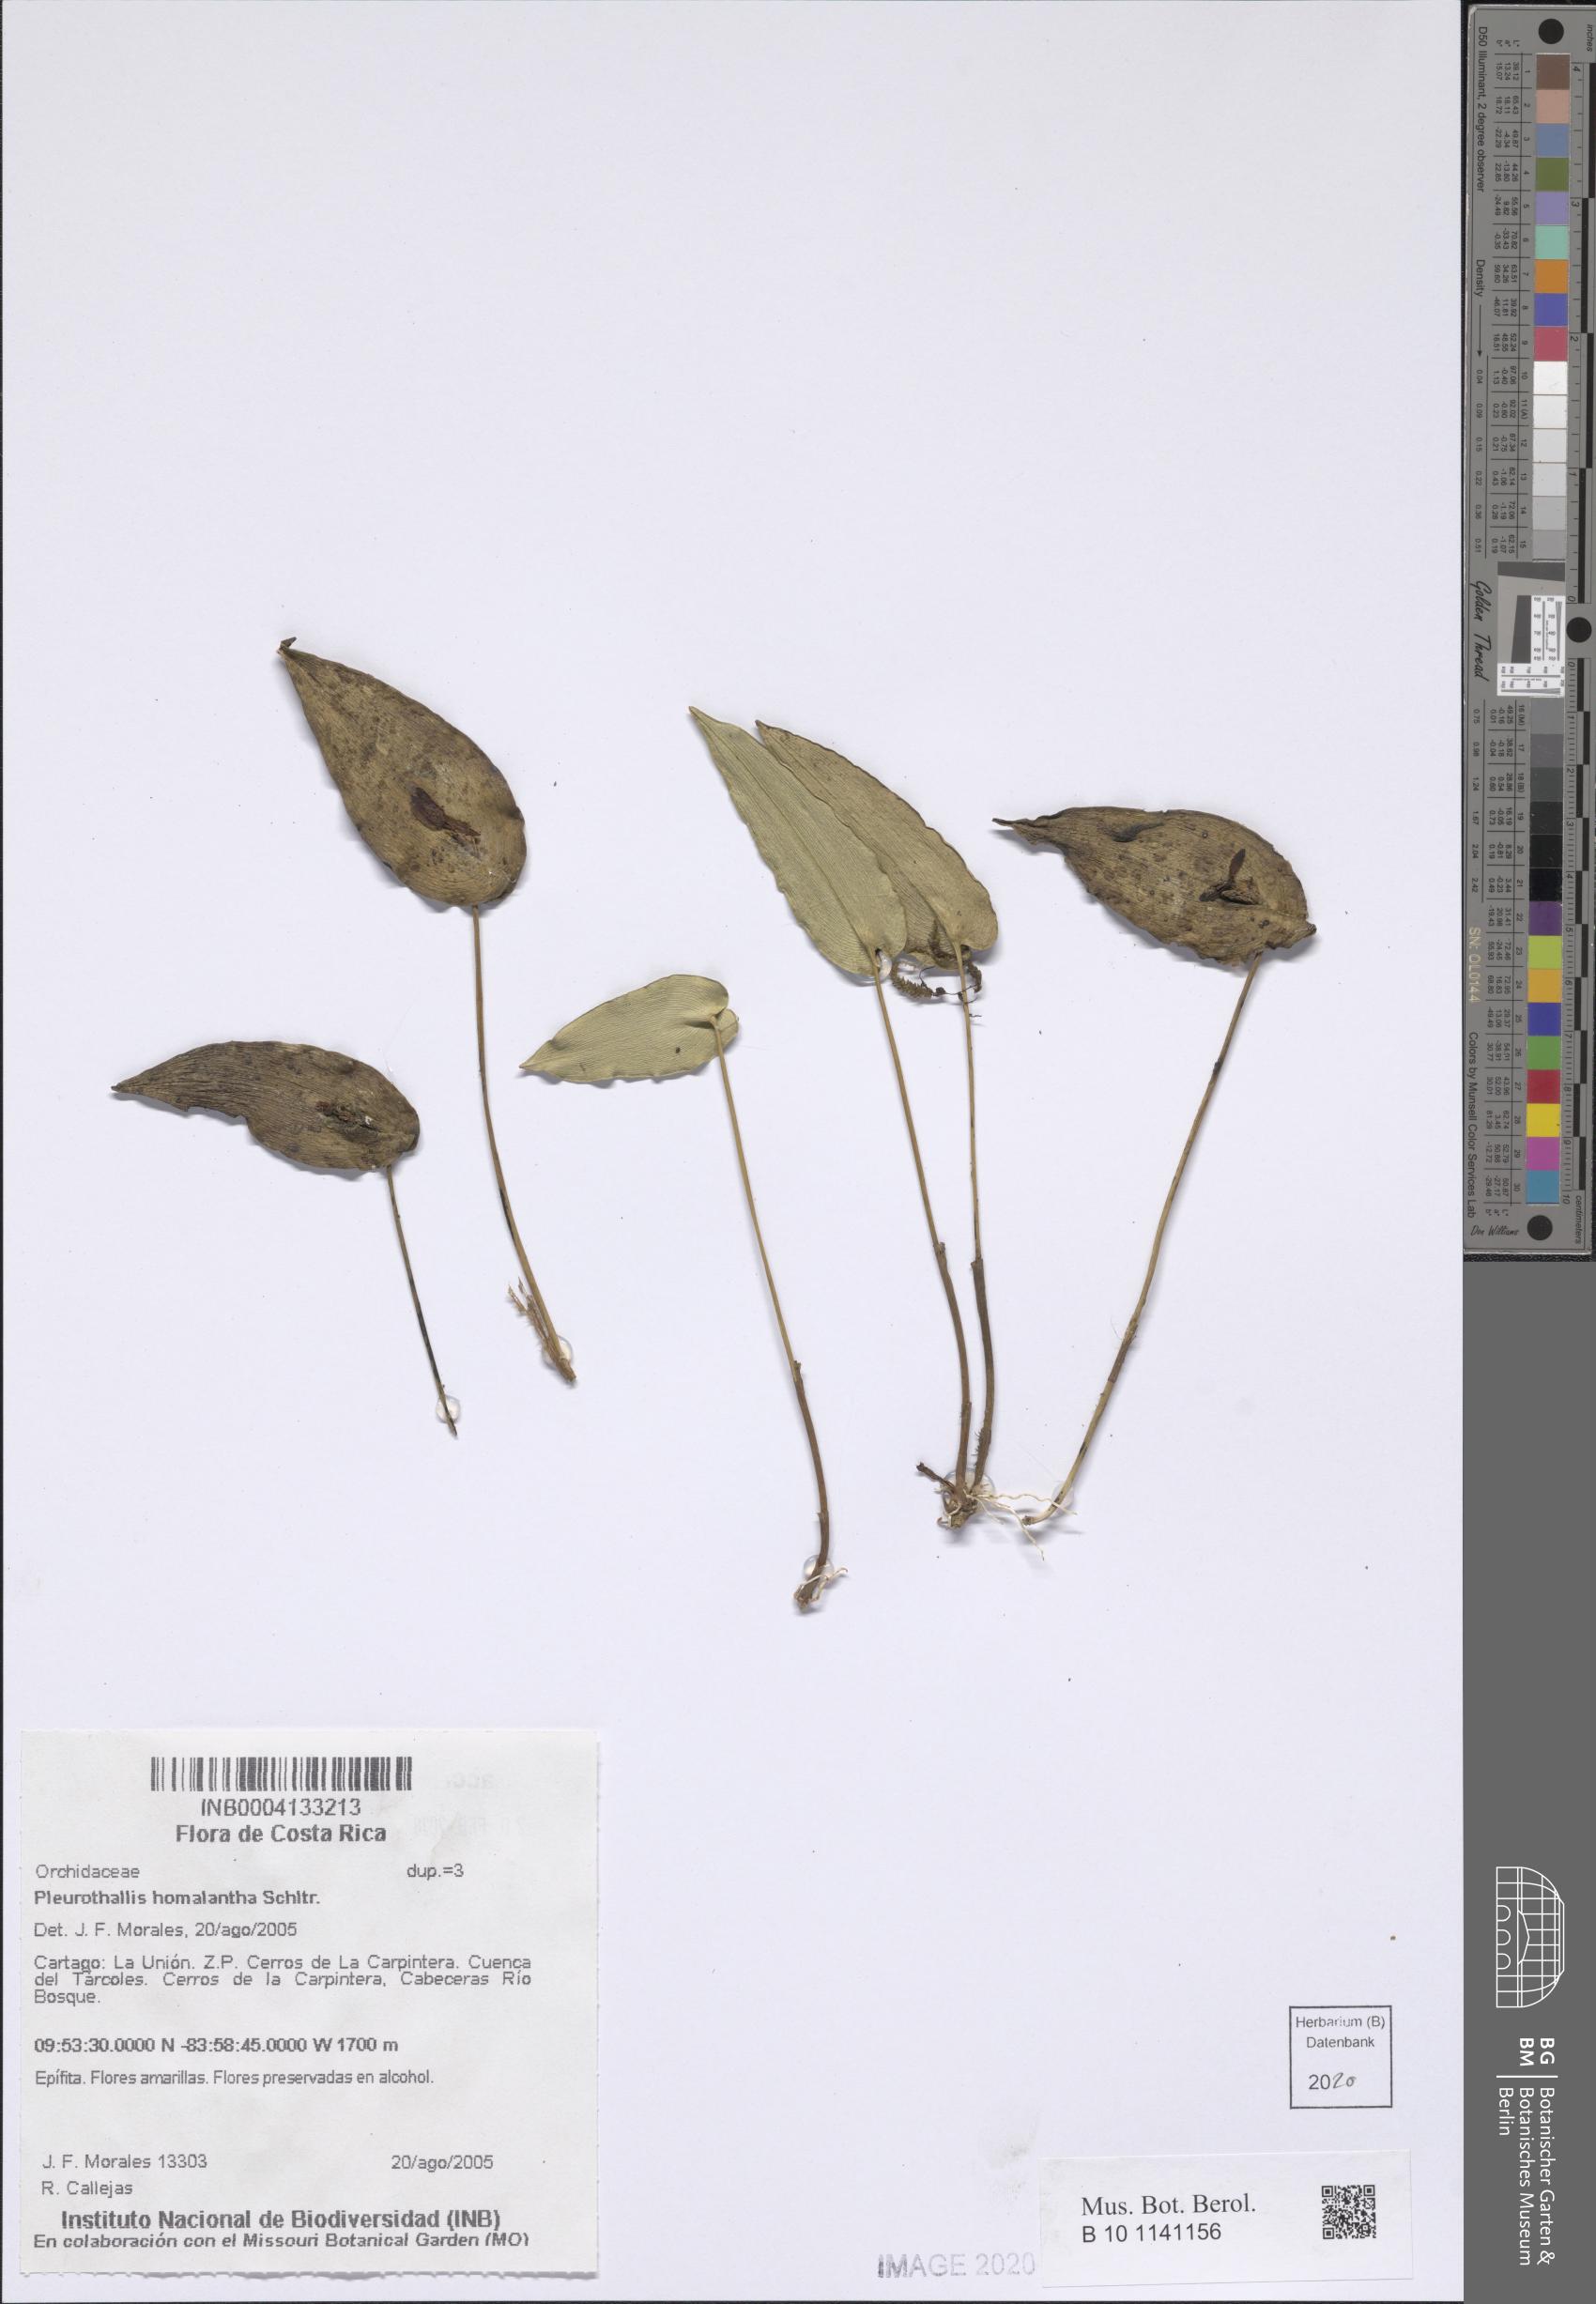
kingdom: Plantae
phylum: Tracheophyta
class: Liliopsida
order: Asparagales
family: Orchidaceae
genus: Pleurothallis
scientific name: Pleurothallis homalantha
